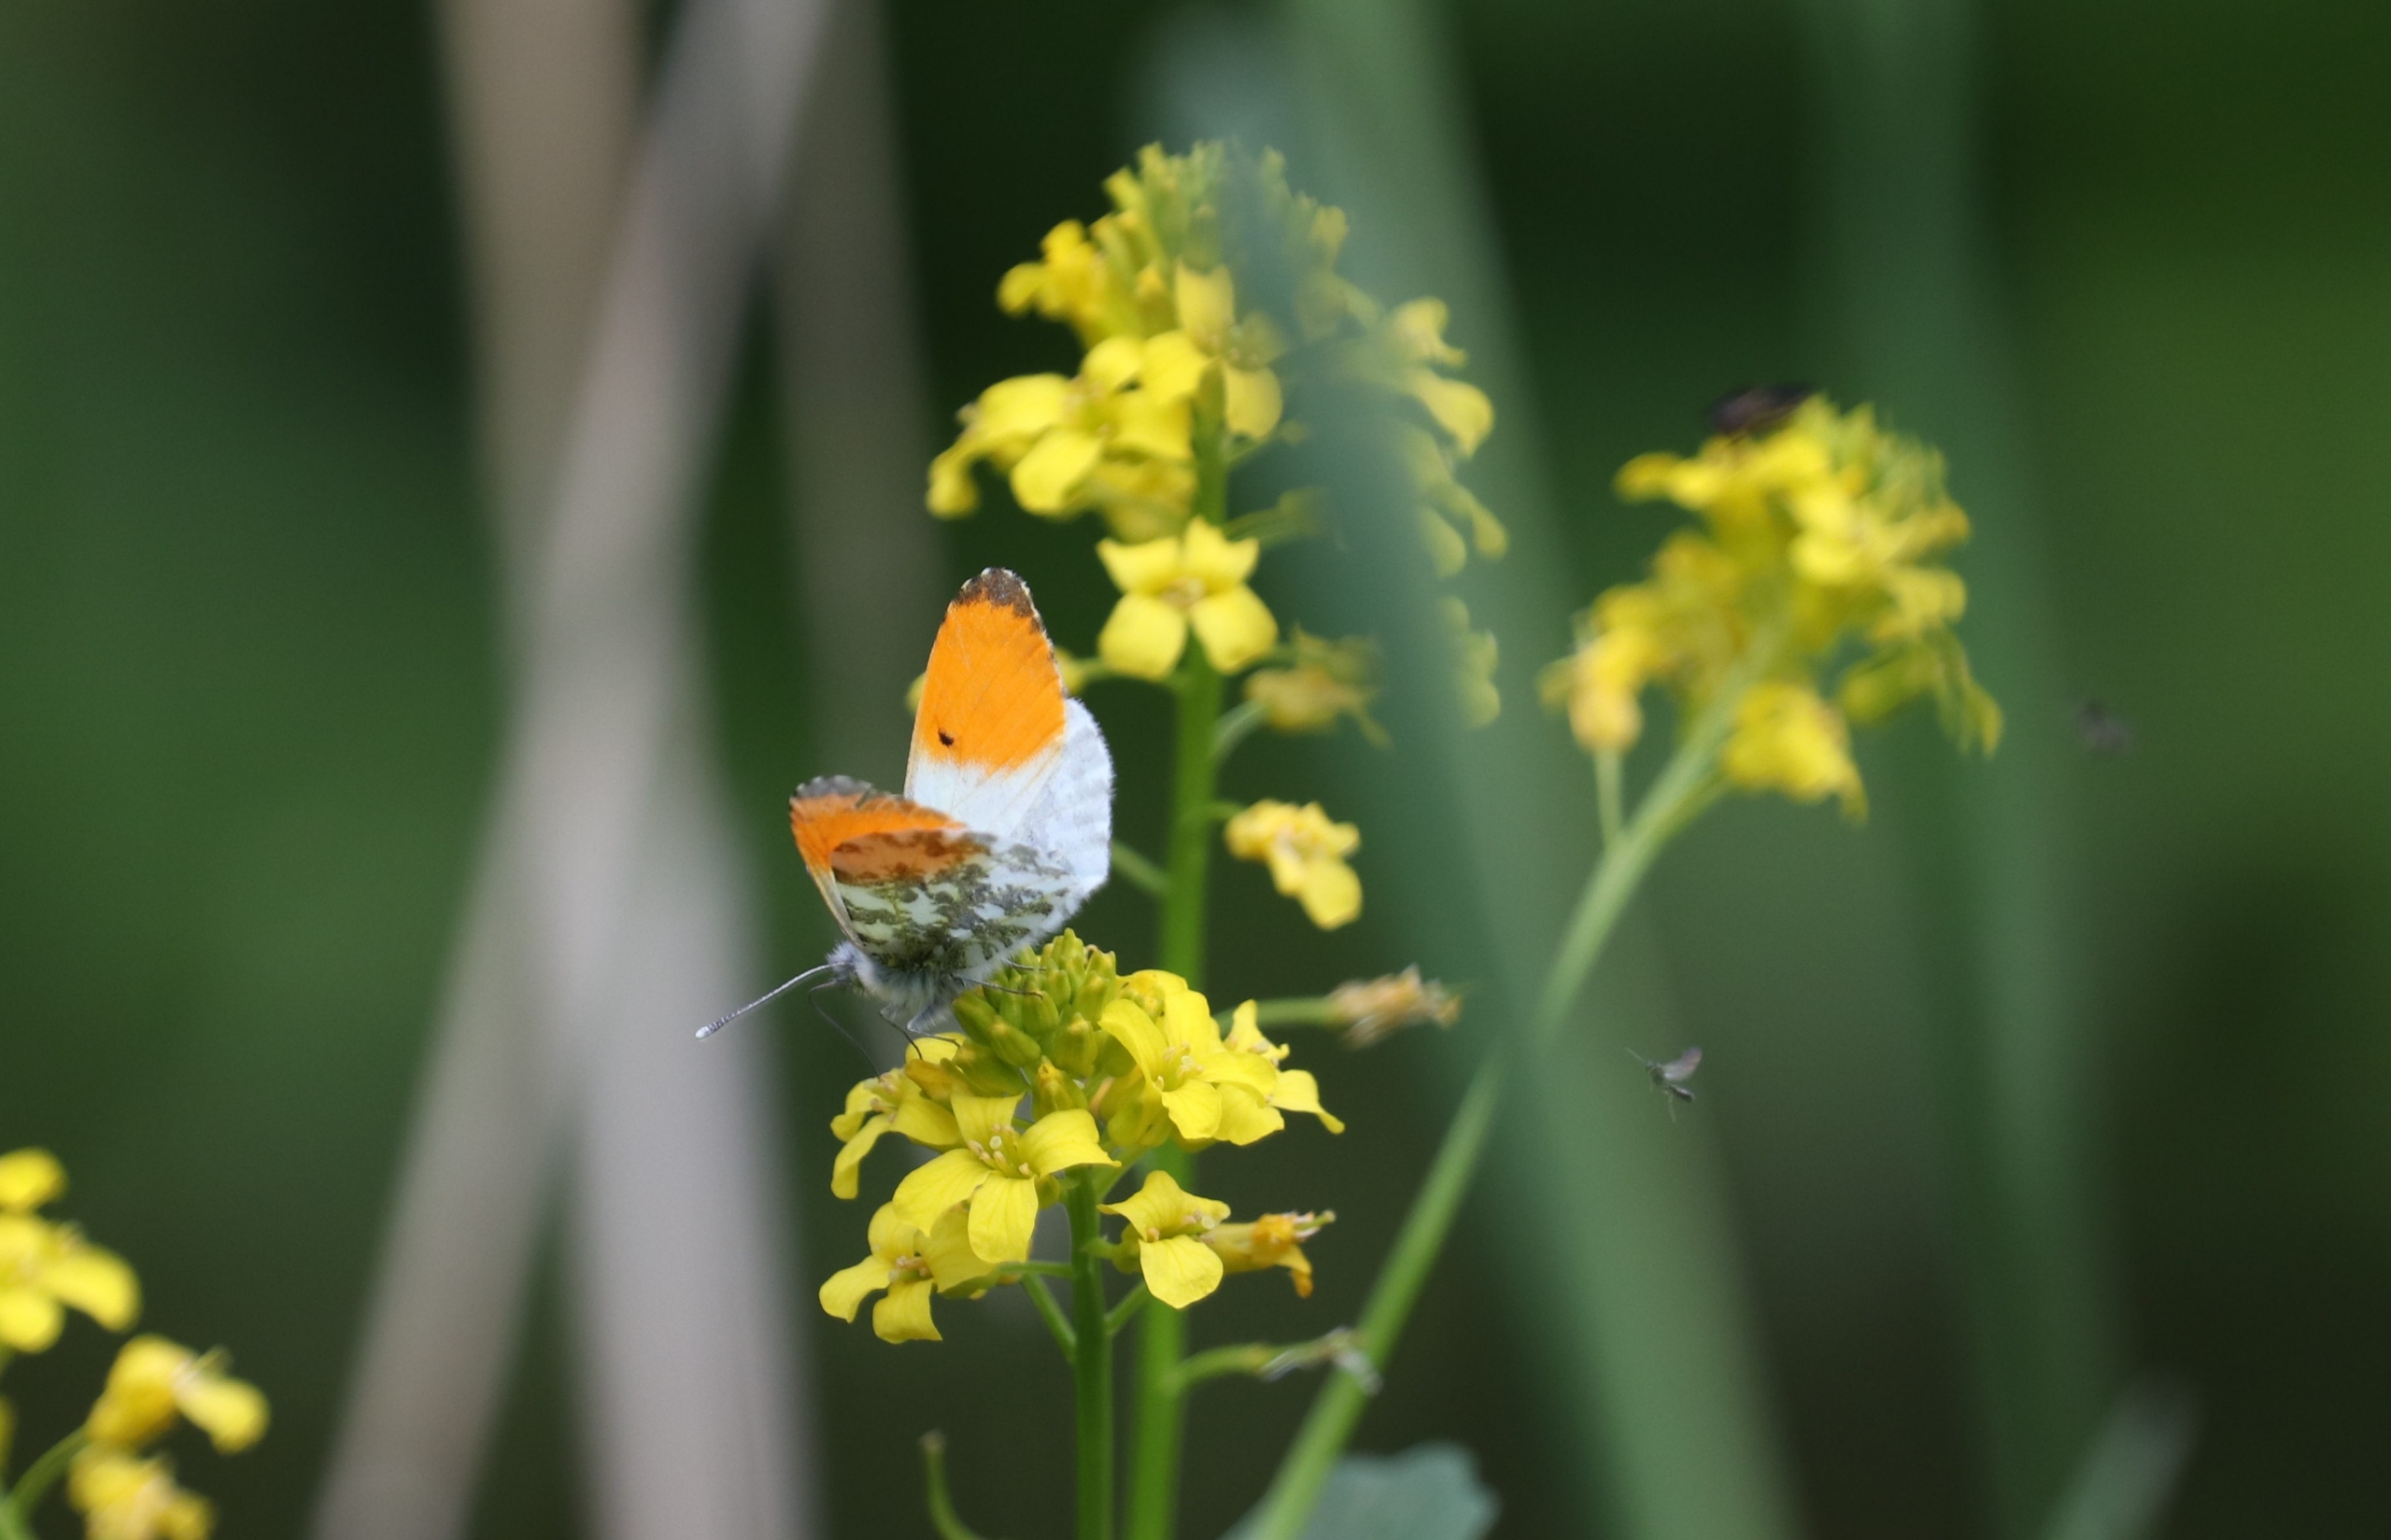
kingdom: Animalia
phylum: Arthropoda
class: Insecta
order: Lepidoptera
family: Pieridae
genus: Anthocharis
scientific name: Anthocharis cardamines
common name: Aurora
